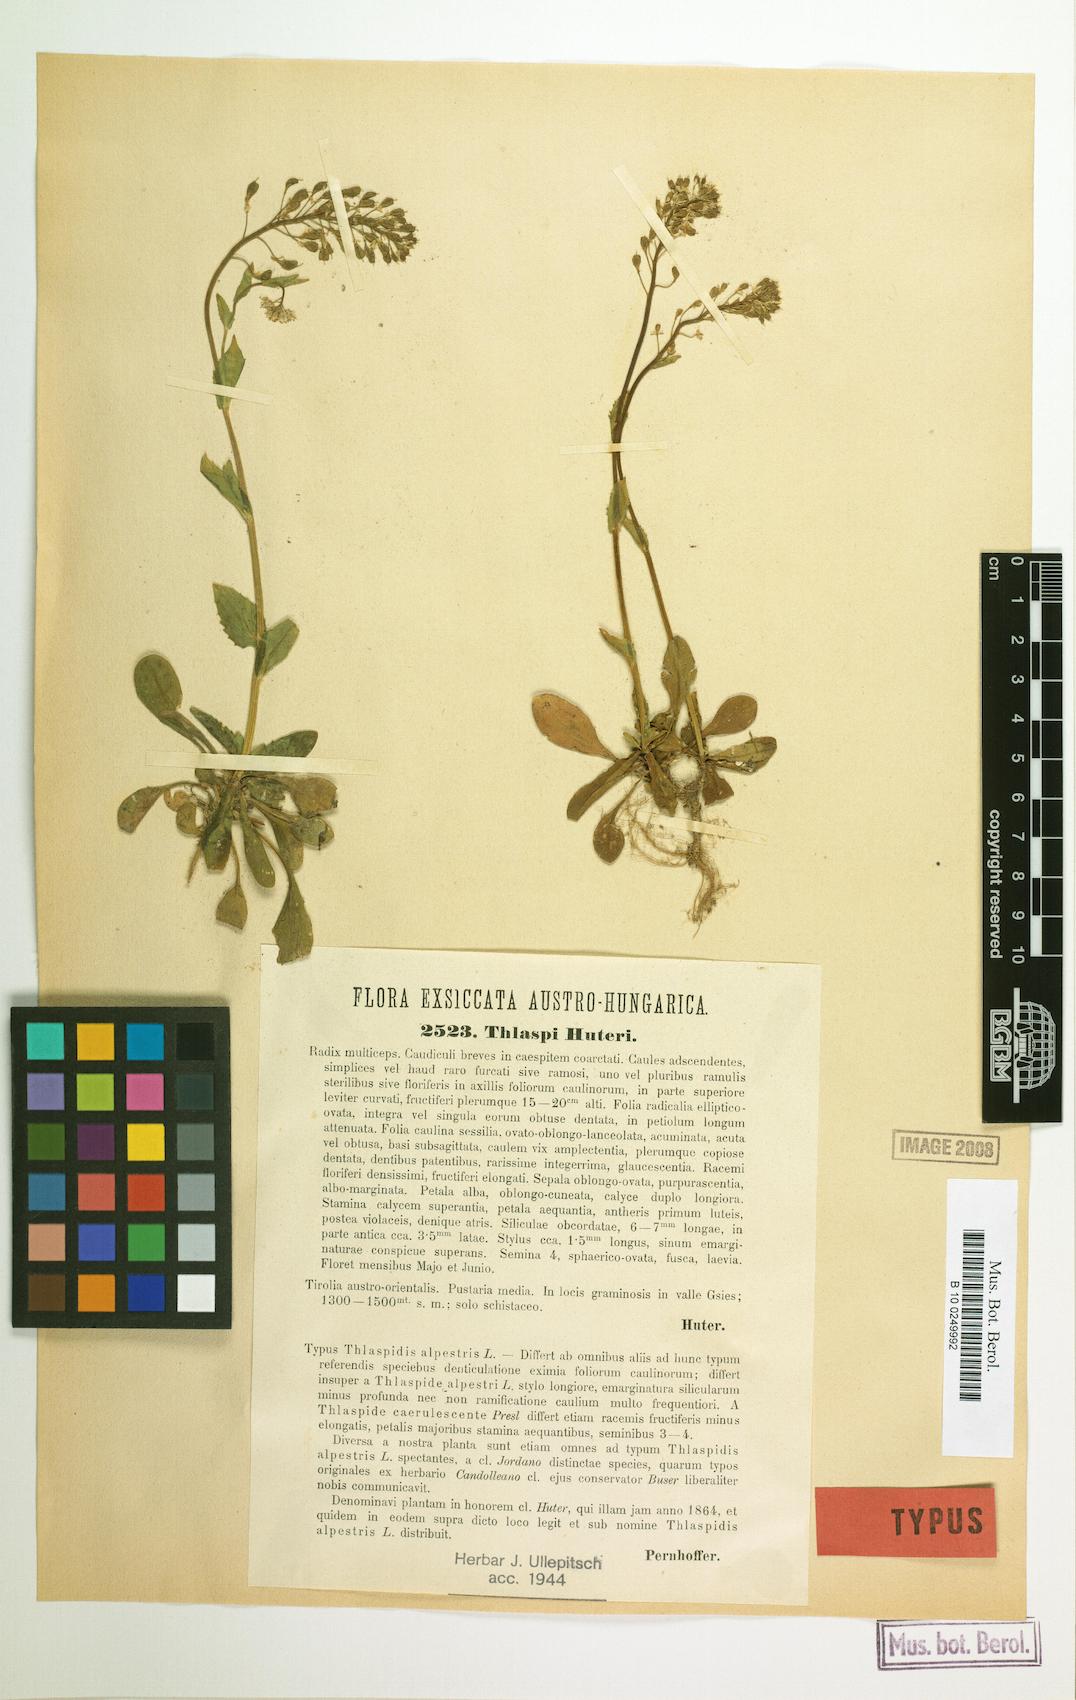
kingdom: Plantae
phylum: Tracheophyta
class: Magnoliopsida
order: Brassicales
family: Brassicaceae
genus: Noccaea
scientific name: Noccaea brachypetala
